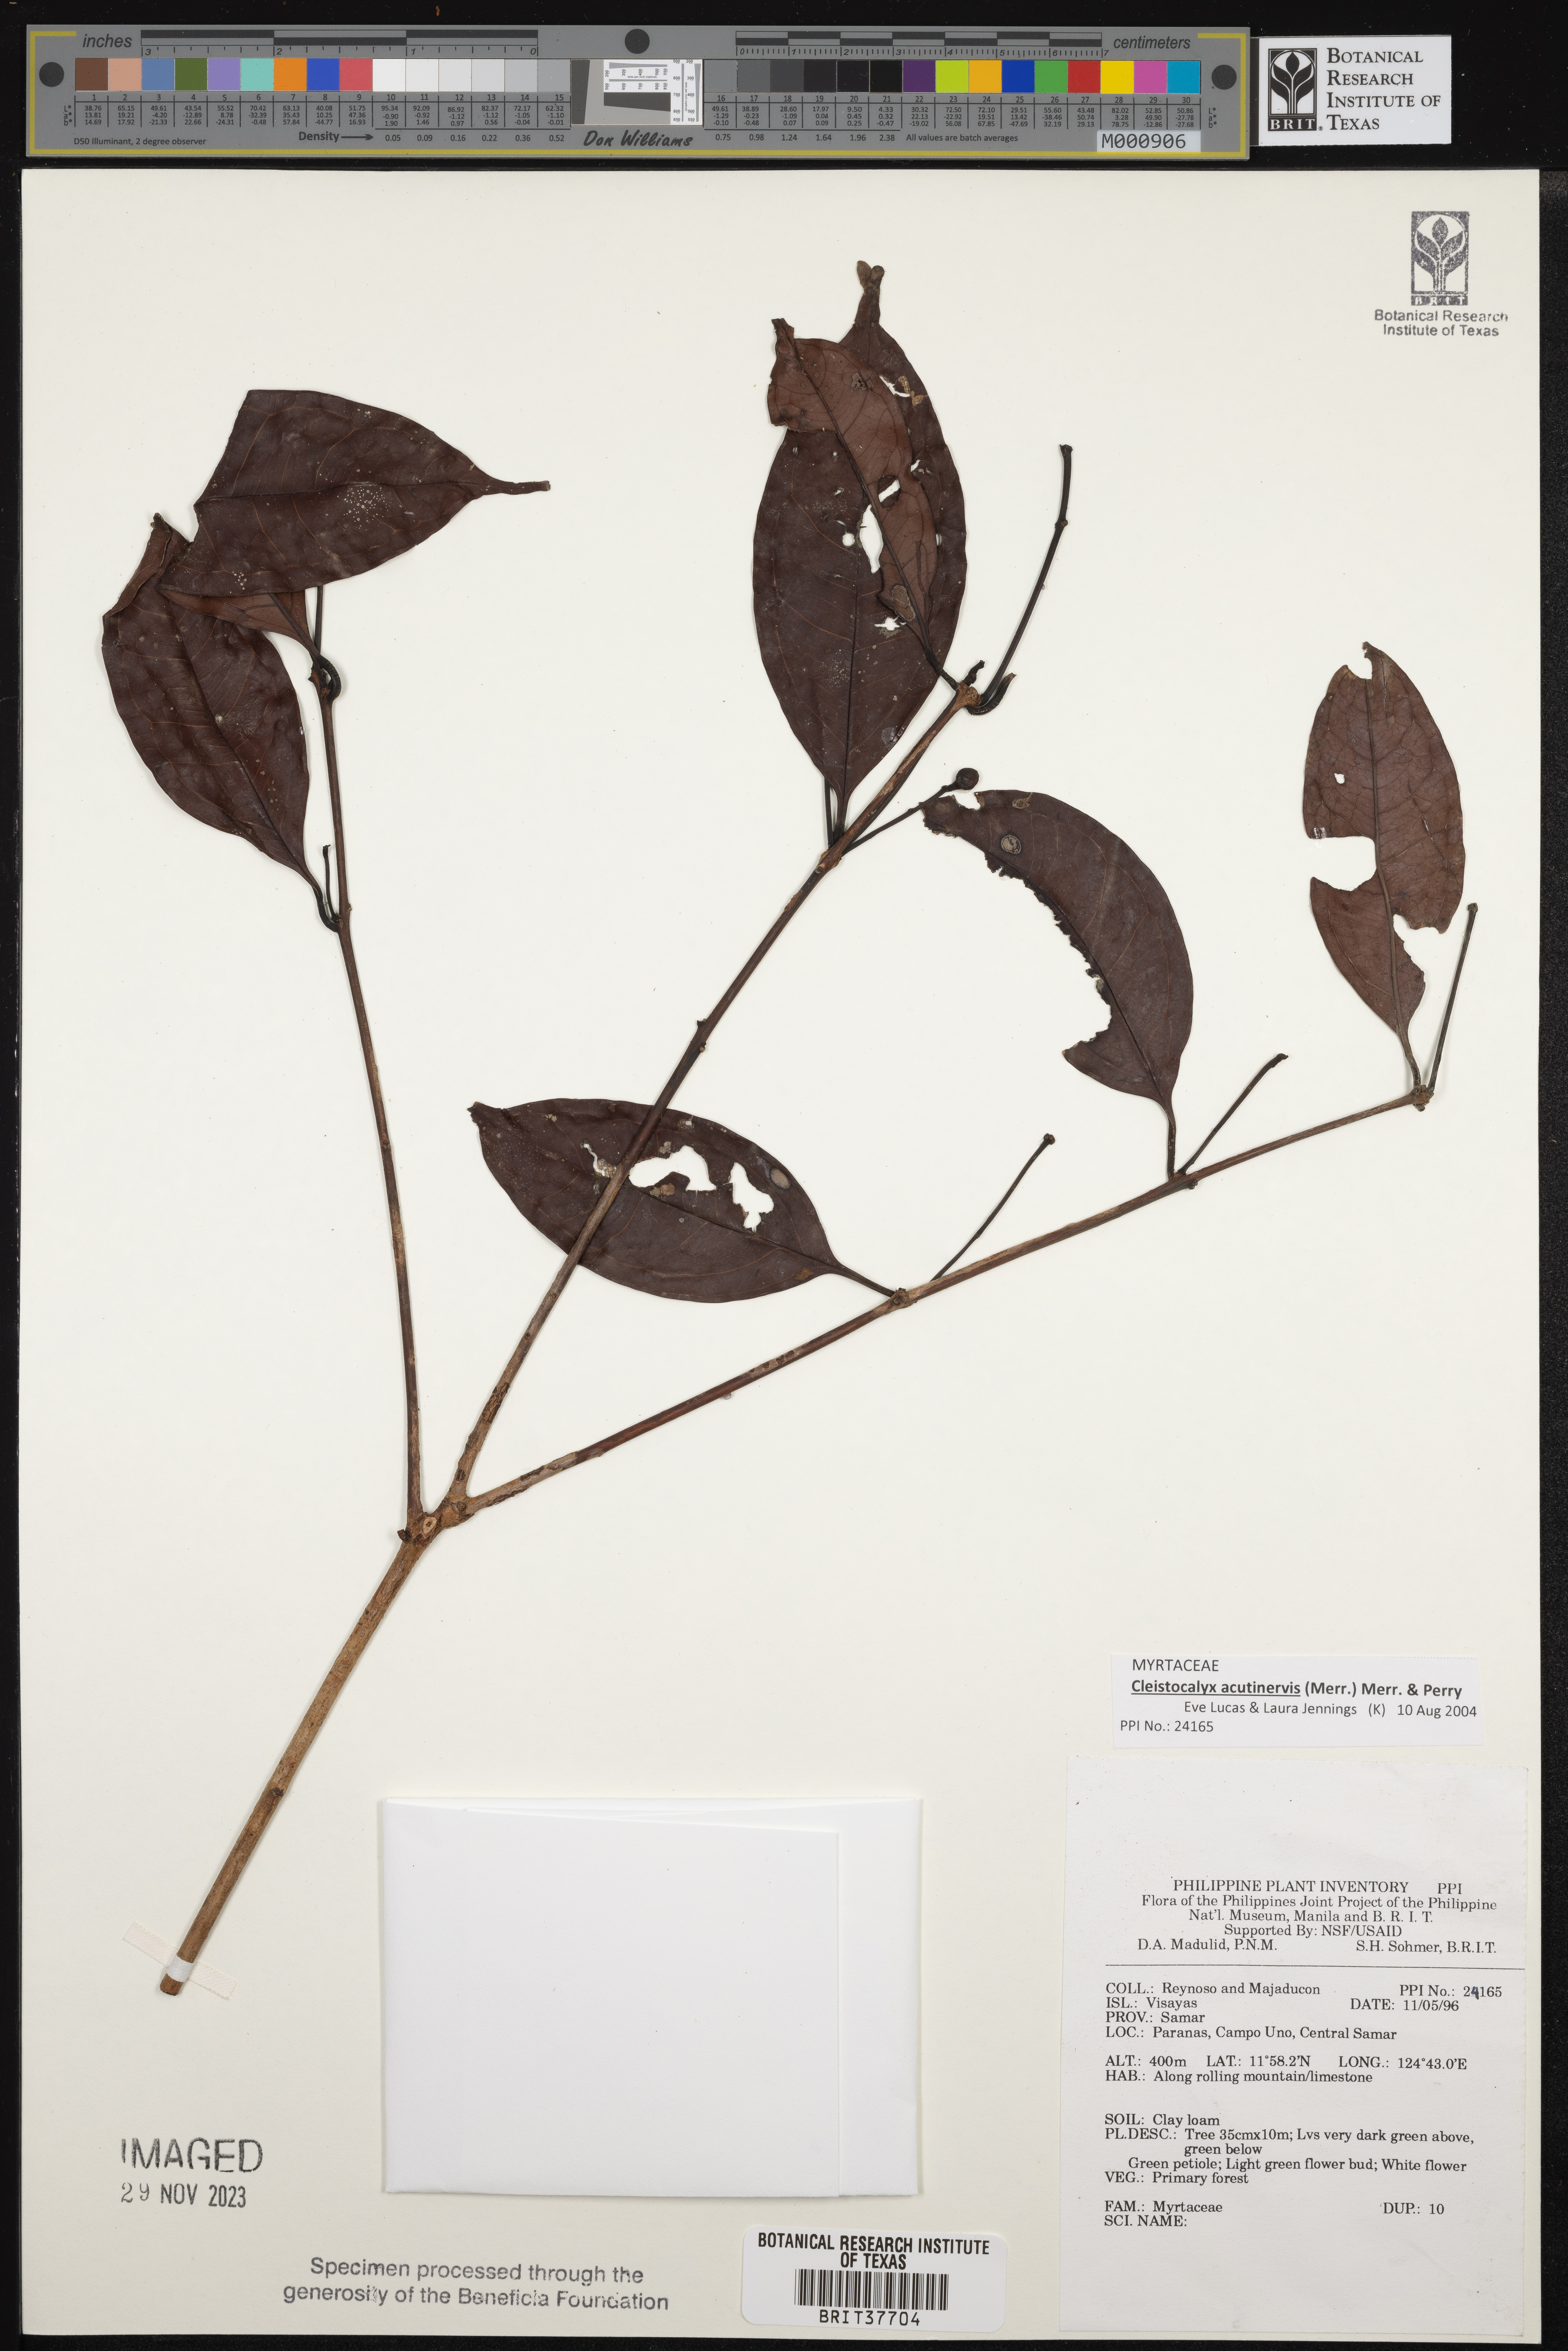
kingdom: Plantae
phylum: Tracheophyta
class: Magnoliopsida
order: Myrtales
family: Myrtaceae
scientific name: Myrtaceae
